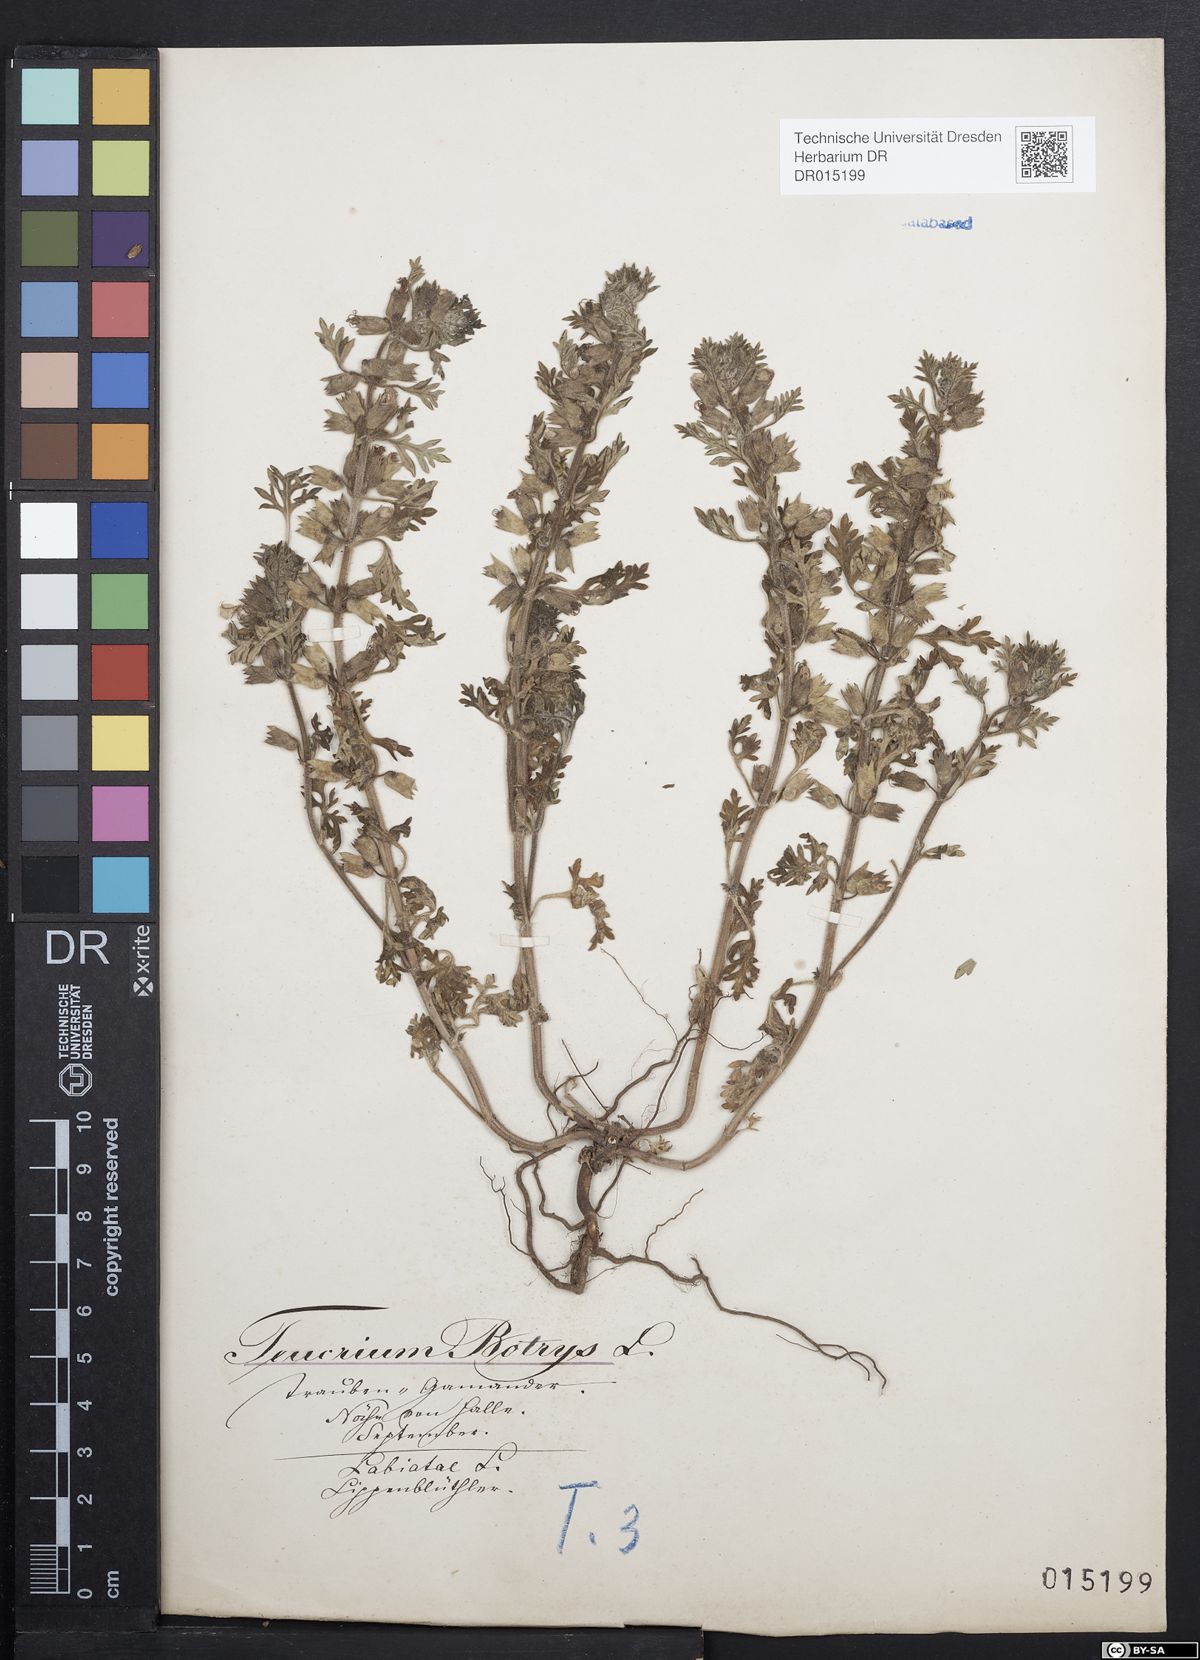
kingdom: Plantae
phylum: Tracheophyta
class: Magnoliopsida
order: Lamiales
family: Lamiaceae
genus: Teucrium
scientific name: Teucrium botrys
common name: Cut-leaved germander
